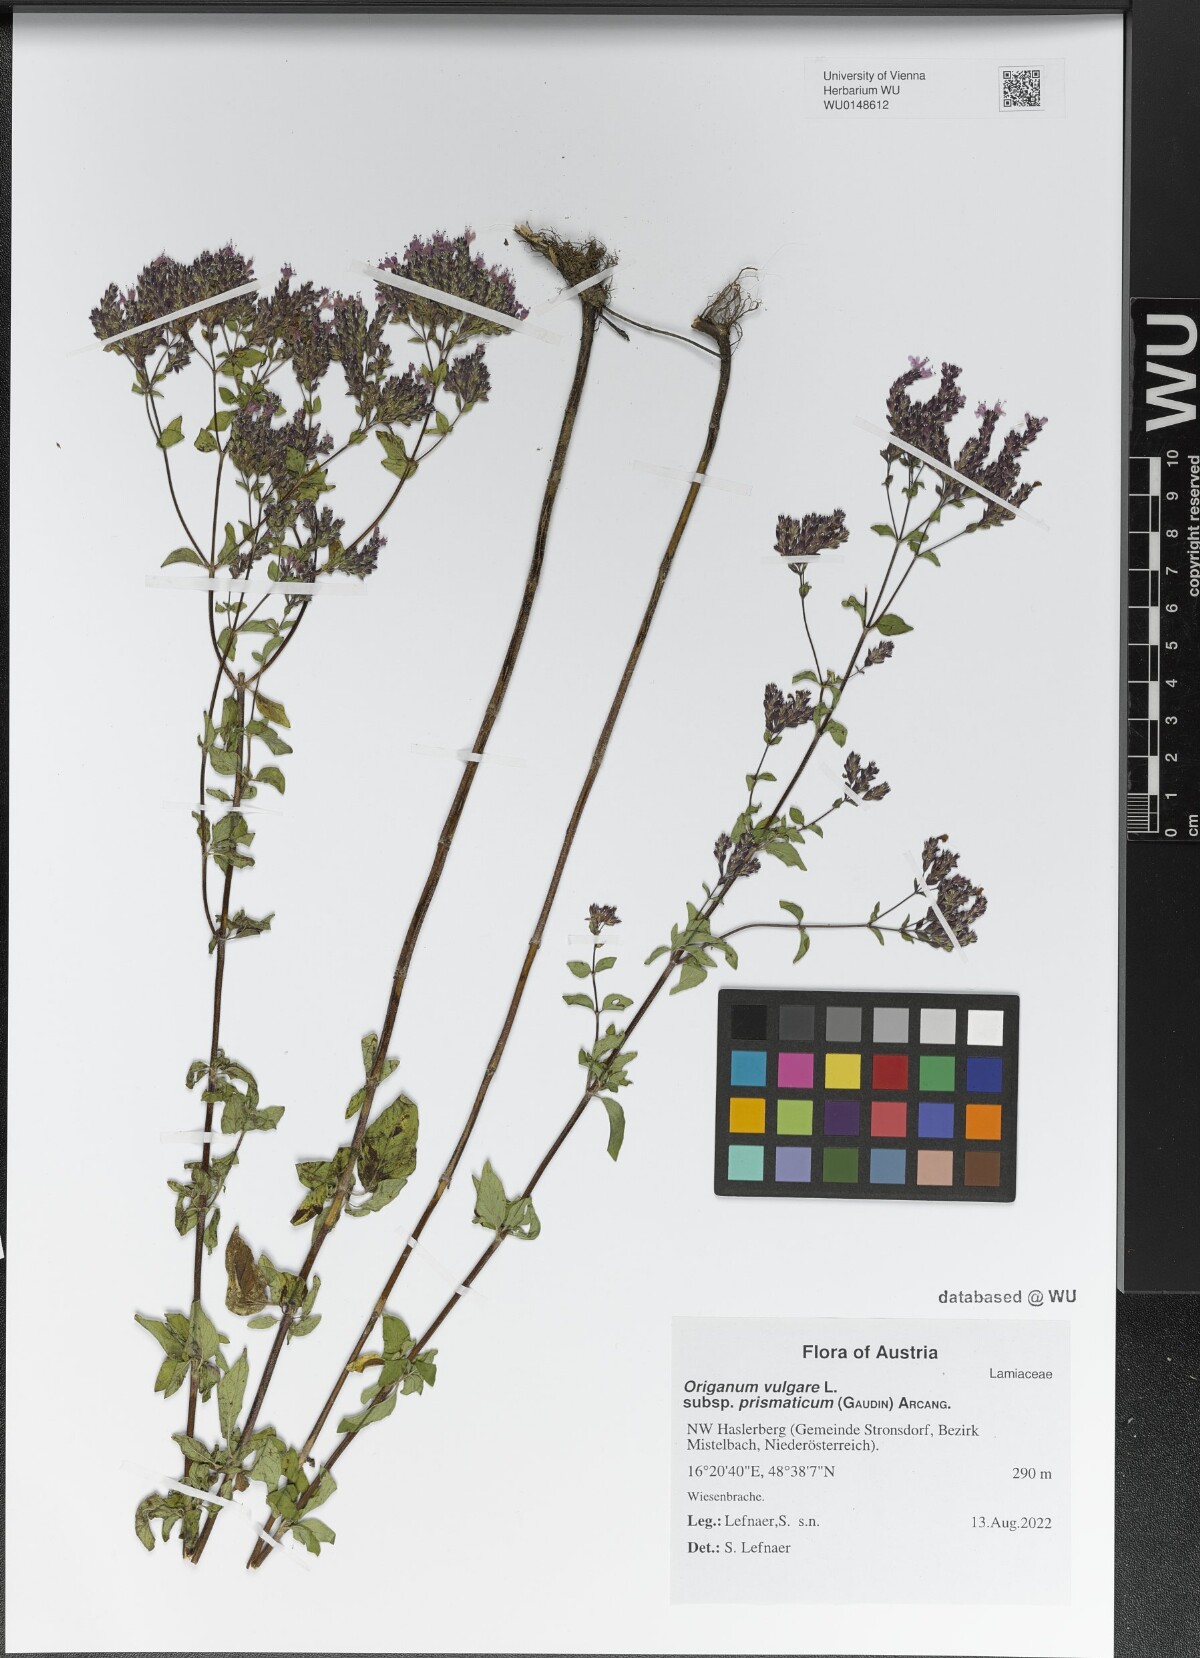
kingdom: Plantae
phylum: Tracheophyta
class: Magnoliopsida
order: Lamiales
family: Lamiaceae
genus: Origanum
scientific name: Origanum vulgare
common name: Wild marjoram
